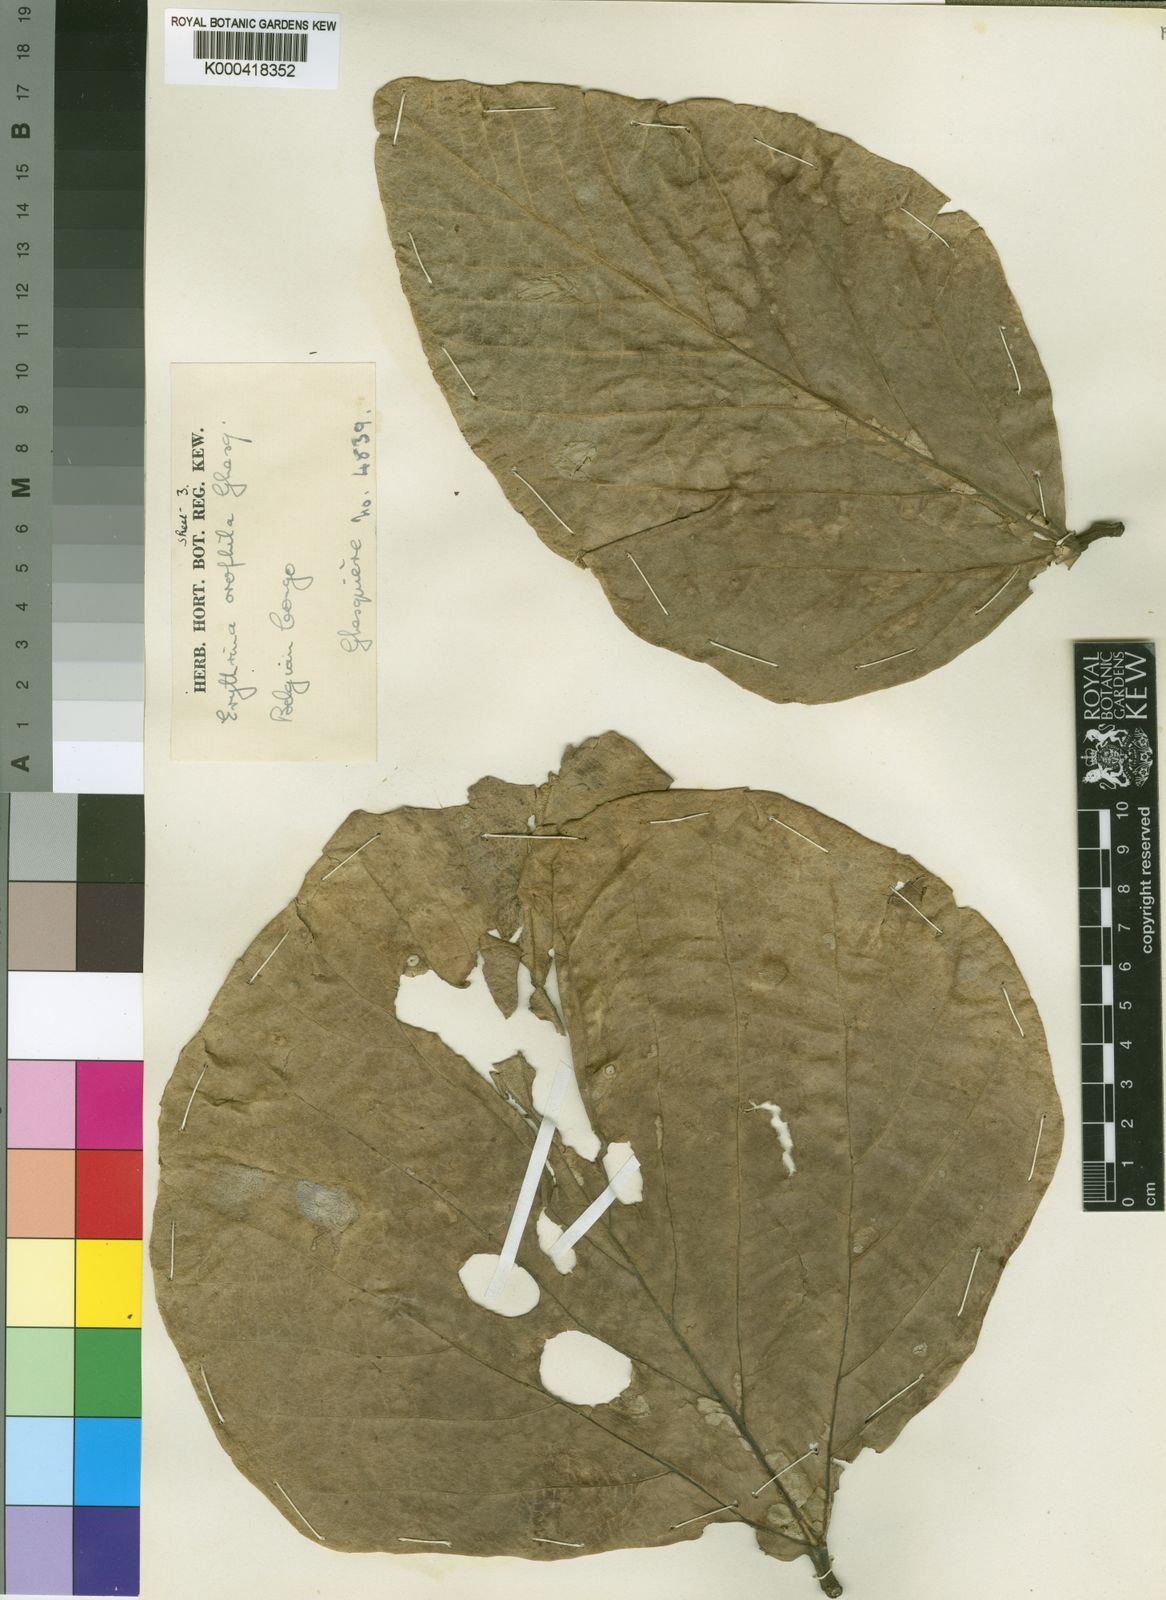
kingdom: Plantae
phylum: Tracheophyta
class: Magnoliopsida
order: Fabales
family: Fabaceae
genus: Erythrina
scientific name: Erythrina orophila
